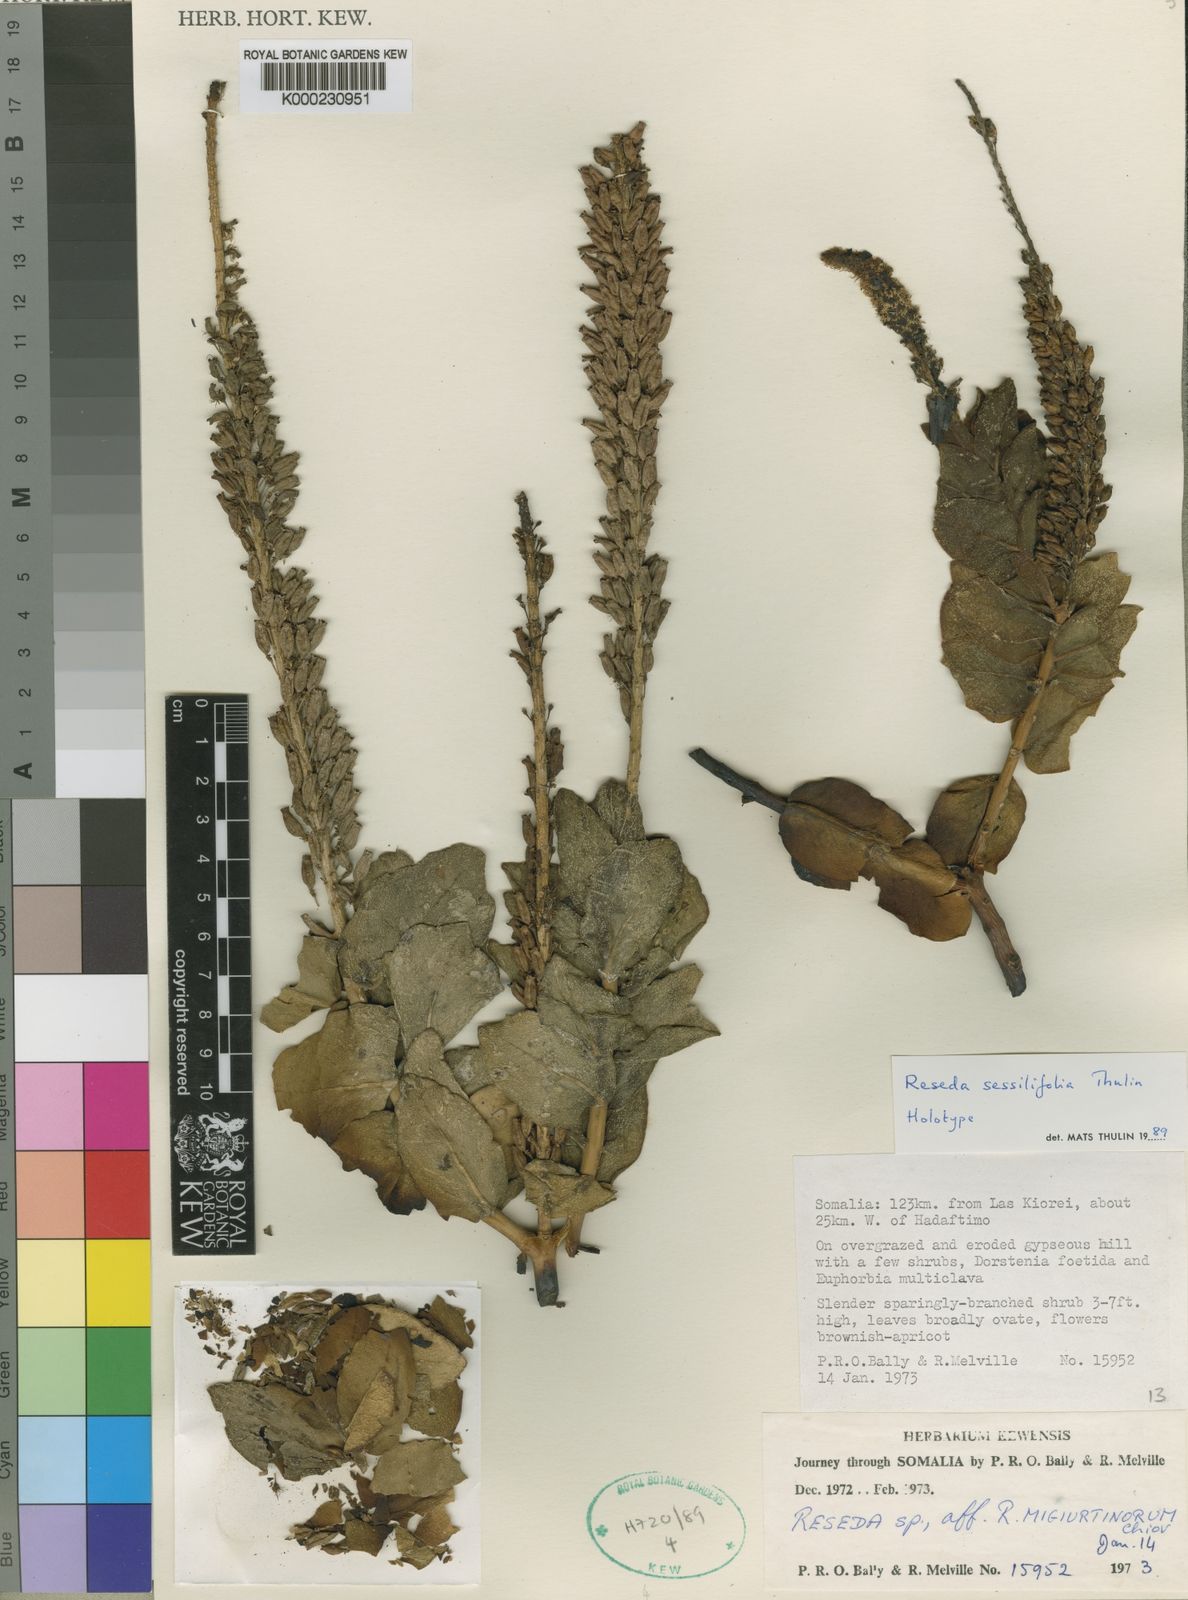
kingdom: Plantae
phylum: Tracheophyta
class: Magnoliopsida
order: Brassicales
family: Resedaceae
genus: Reseda
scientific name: Reseda sessilifolia
